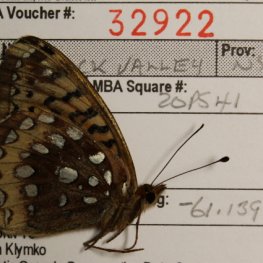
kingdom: Animalia
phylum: Arthropoda
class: Insecta
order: Lepidoptera
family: Nymphalidae
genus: Speyeria
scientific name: Speyeria cybele
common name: Great Spangled Fritillary
